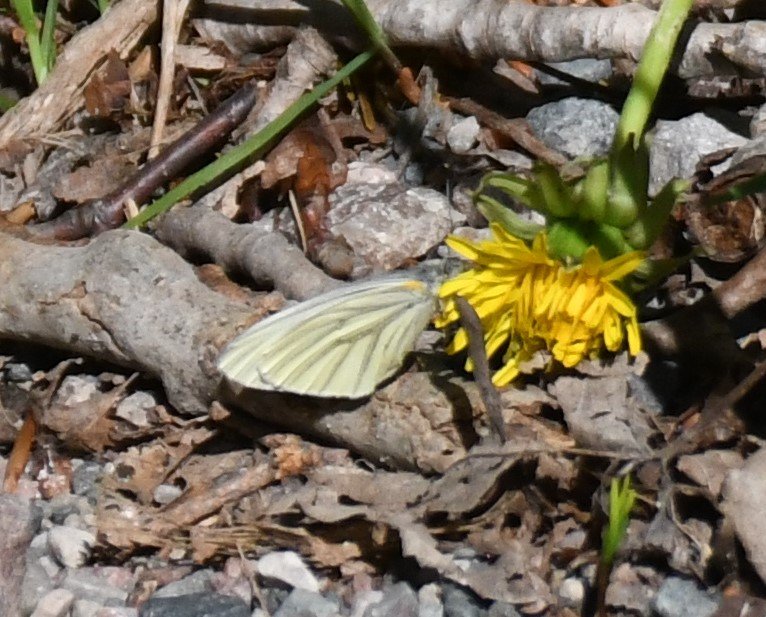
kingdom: Animalia
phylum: Arthropoda
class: Insecta
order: Lepidoptera
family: Pieridae
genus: Pieris
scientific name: Pieris oleracea
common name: Mustard White
